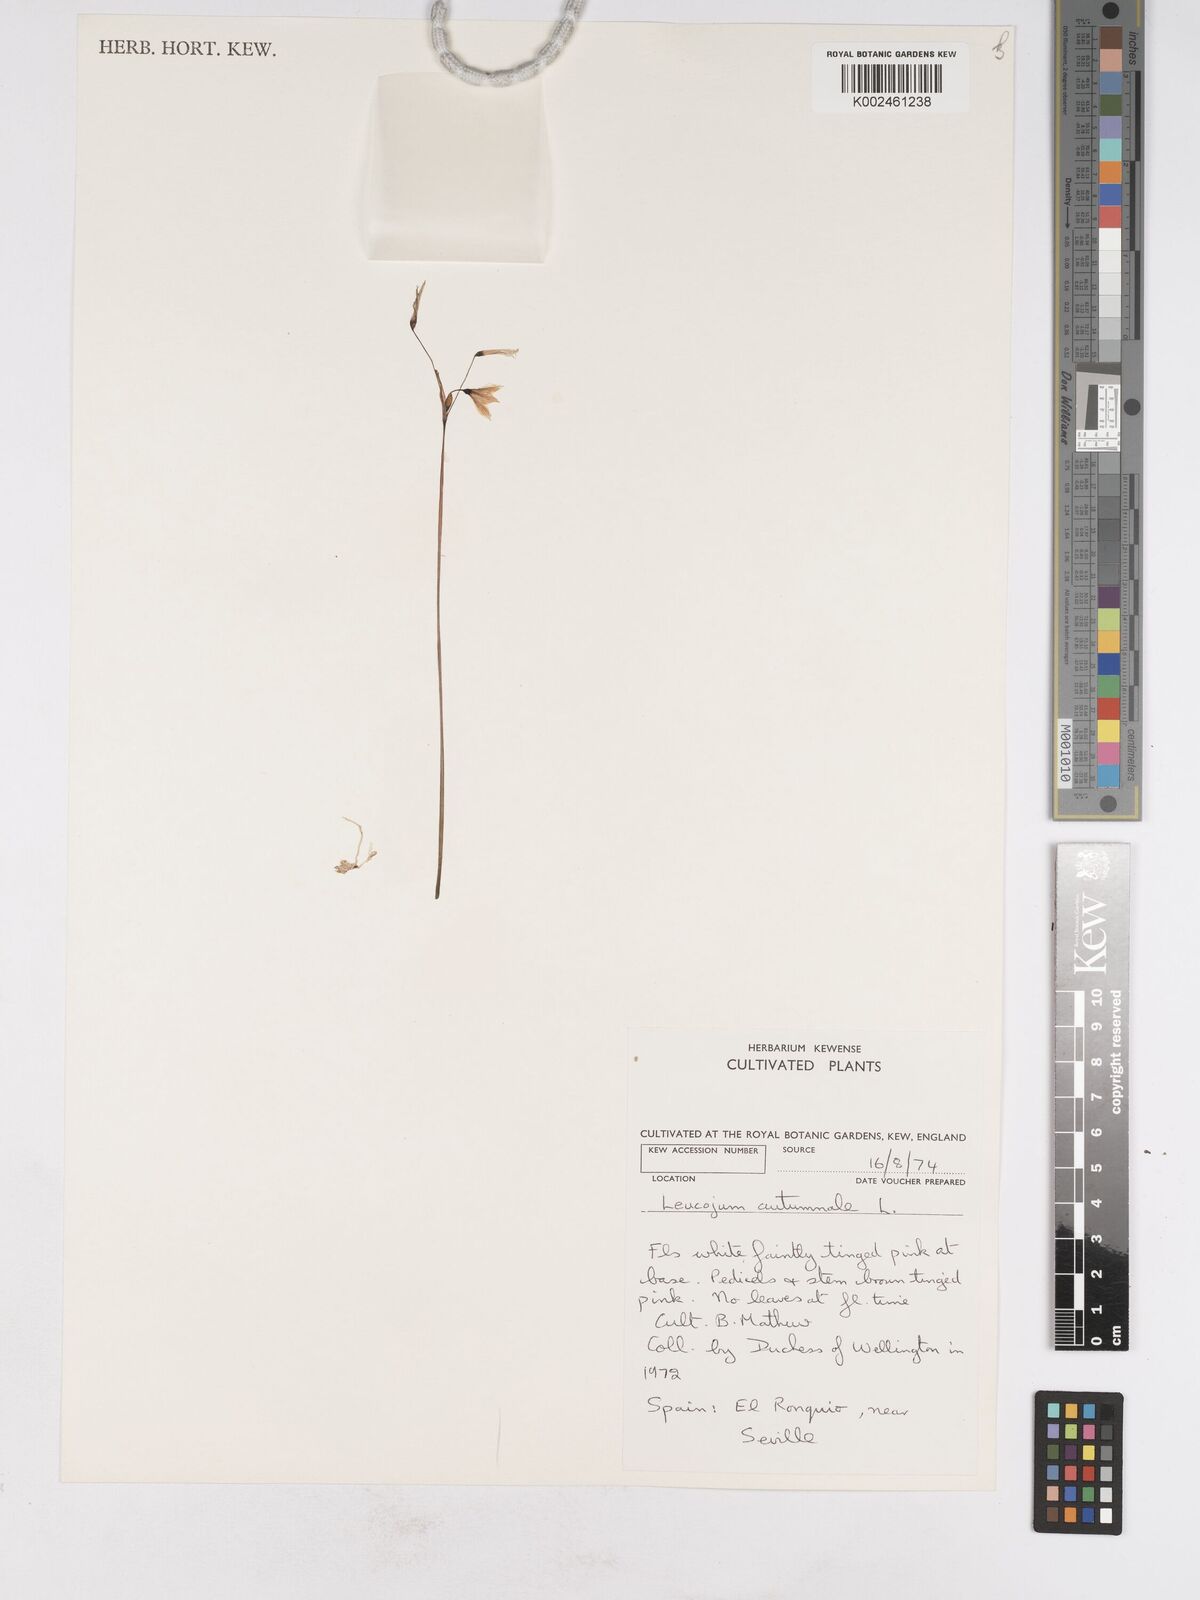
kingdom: Plantae
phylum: Tracheophyta
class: Liliopsida
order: Asparagales
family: Amaryllidaceae
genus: Acis
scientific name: Acis autumnalis
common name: Autumn snowflake
